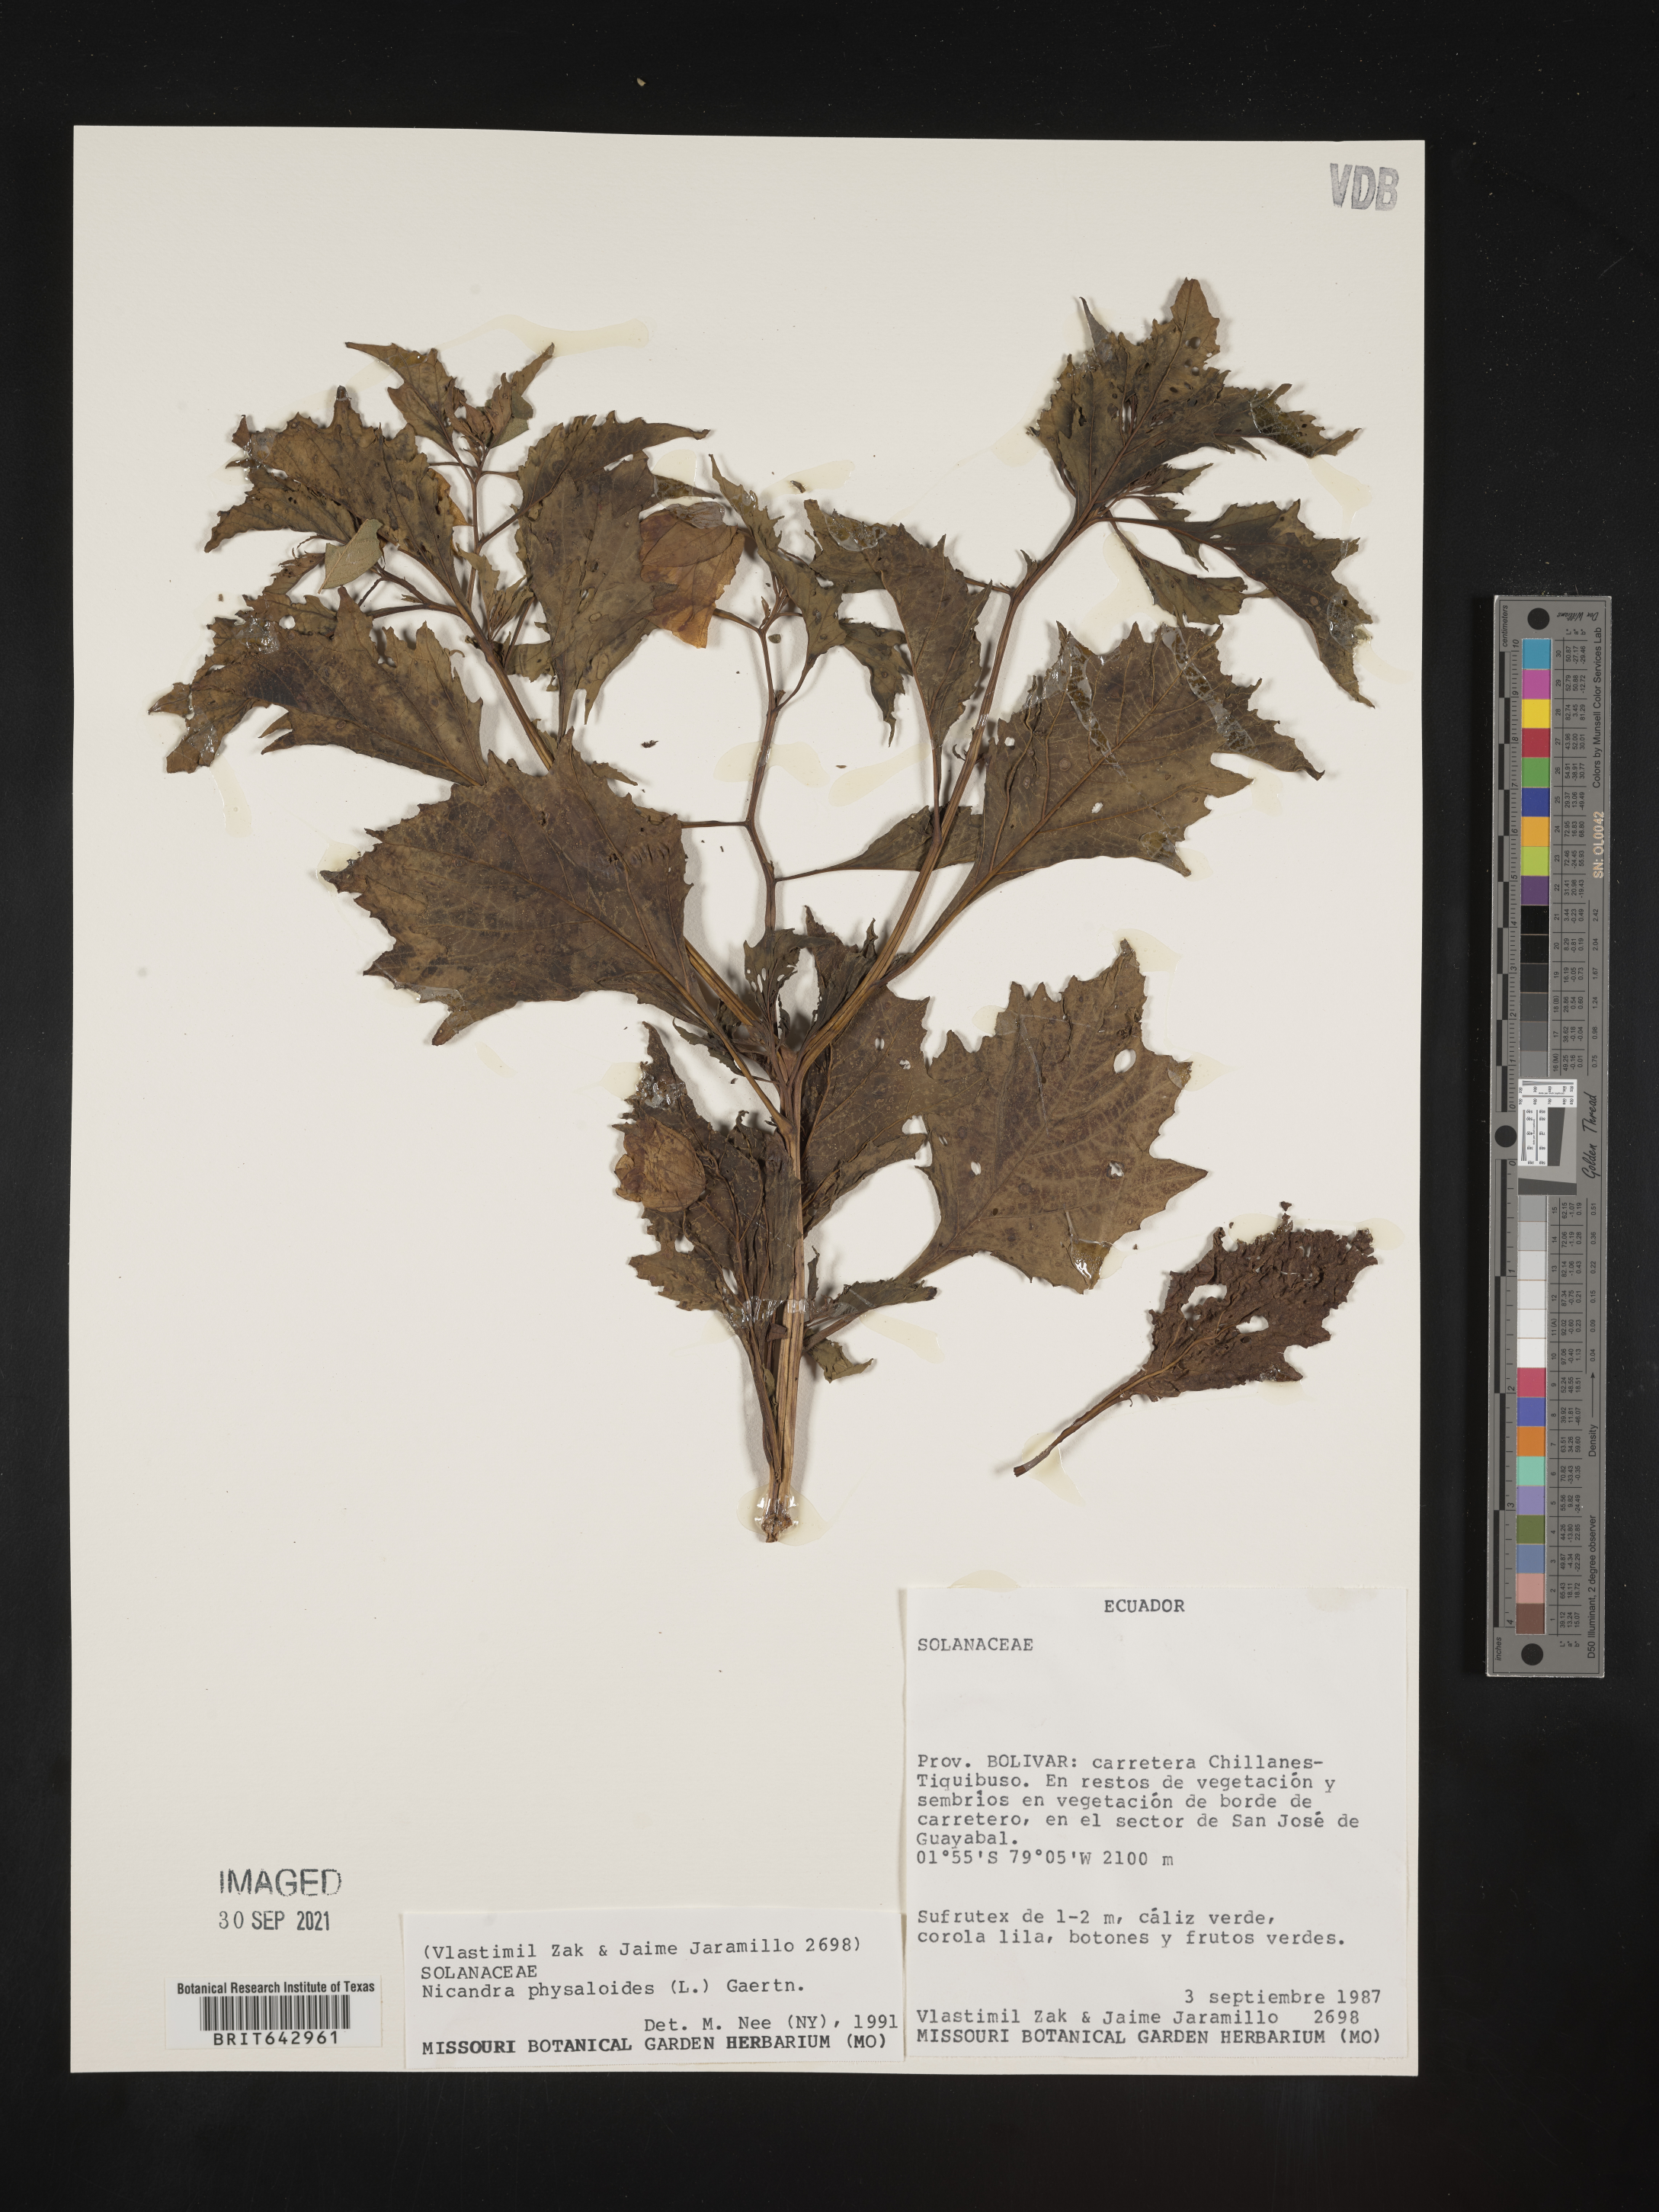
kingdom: Plantae
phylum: Tracheophyta
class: Magnoliopsida
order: Solanales
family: Solanaceae
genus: Nicandra
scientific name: Nicandra
